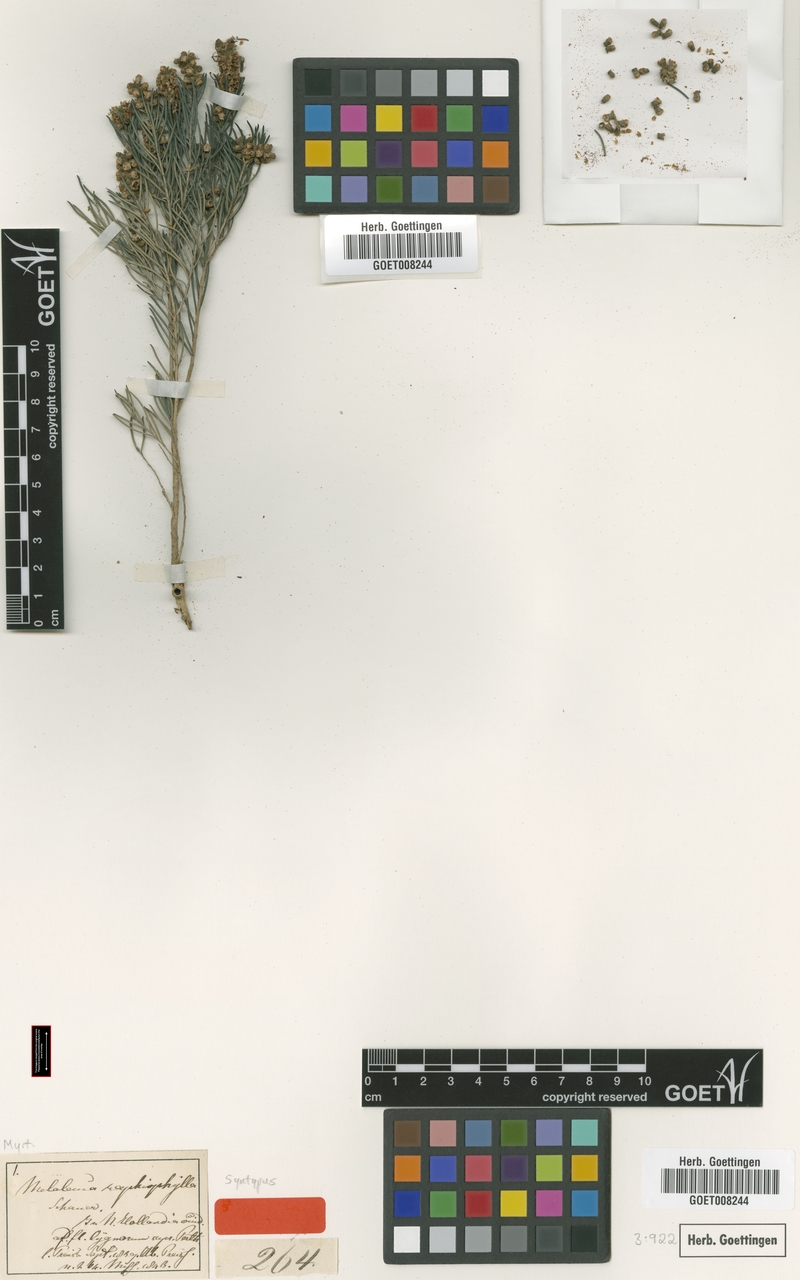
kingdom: Plantae
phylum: Tracheophyta
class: Magnoliopsida
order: Myrtales
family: Myrtaceae
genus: Melaleuca
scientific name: Melaleuca rhaphiophylla
